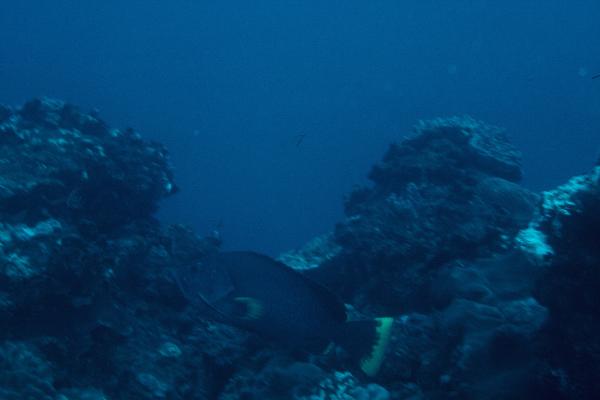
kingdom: Animalia
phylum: Chordata
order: Perciformes
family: Serranidae
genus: Epinephelus
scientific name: Epinephelus flavocaeruleus
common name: Blue and yellow grouper
